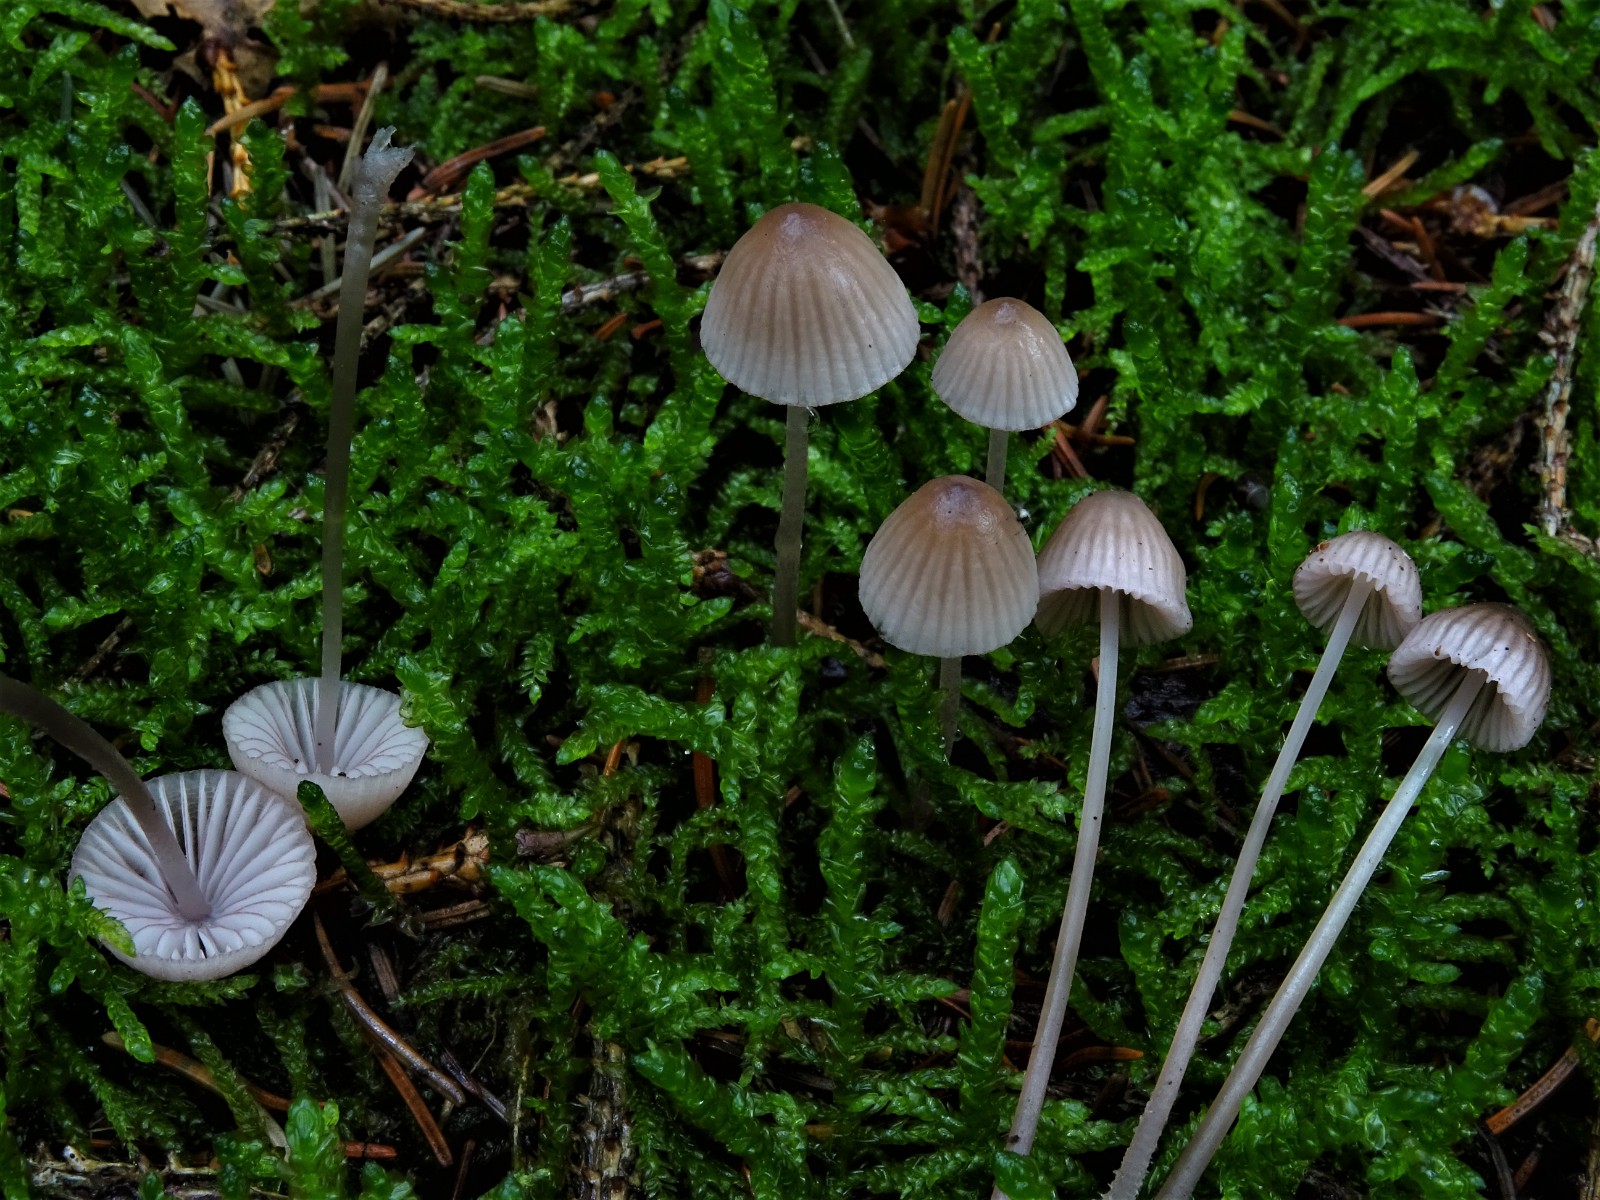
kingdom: Fungi
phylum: Basidiomycota
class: Agaricomycetes
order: Agaricales
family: Mycenaceae
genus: Mycena
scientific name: Mycena capillaripes
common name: nåle-huesvamp
